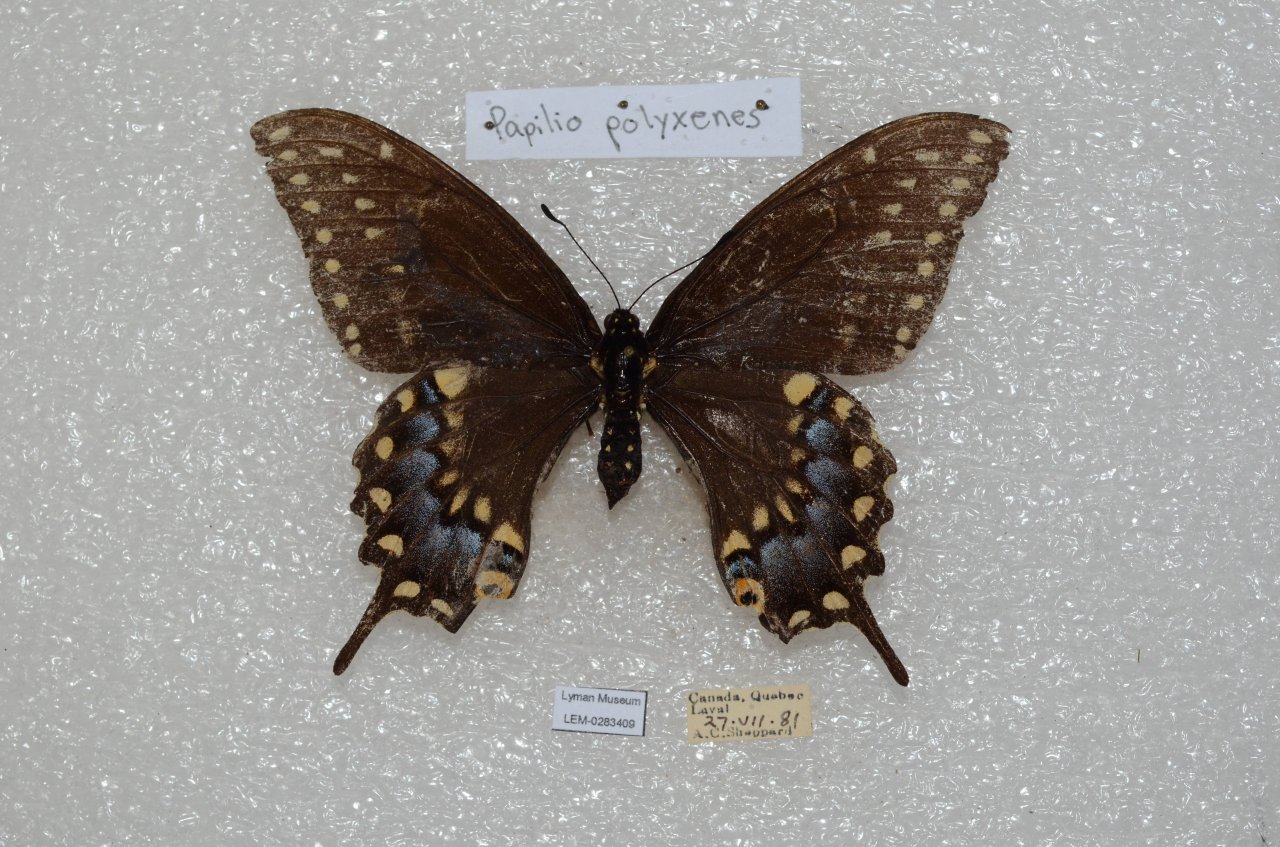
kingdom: Animalia
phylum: Arthropoda
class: Insecta
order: Lepidoptera
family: Papilionidae
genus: Papilio
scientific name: Papilio polyxenes
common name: Black Swallowtail
